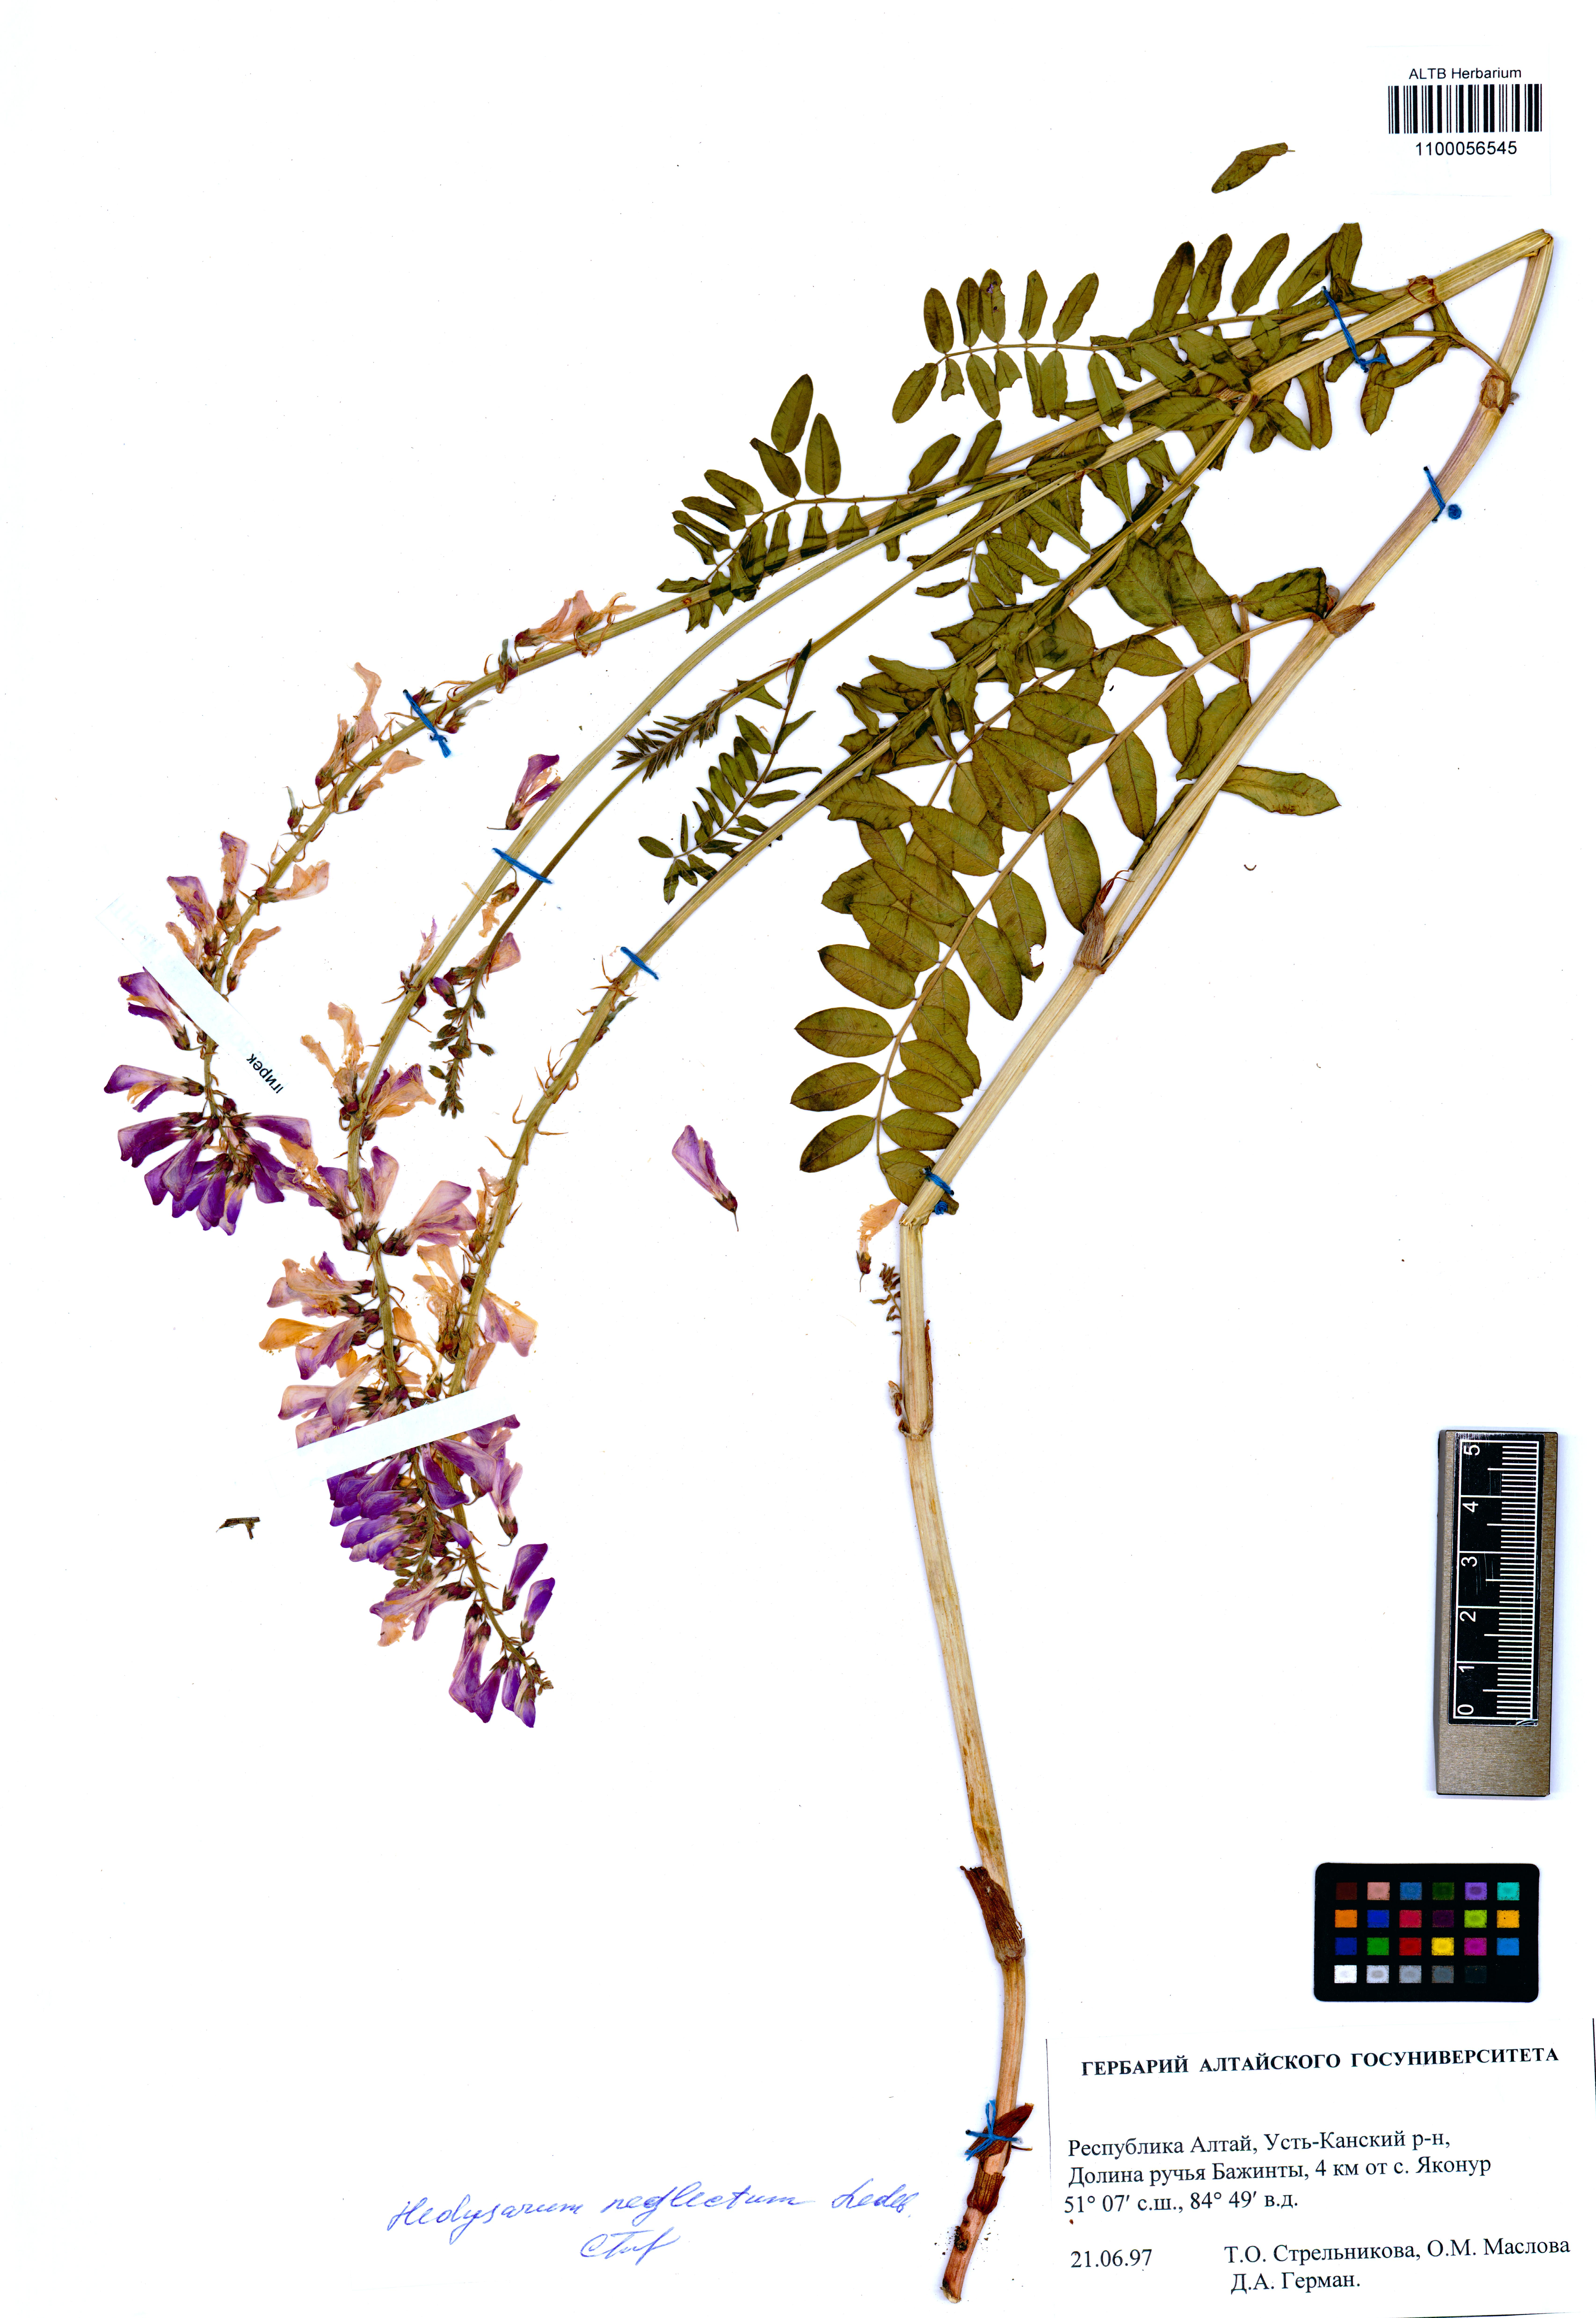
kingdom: Plantae
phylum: Tracheophyta
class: Magnoliopsida
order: Fabales
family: Fabaceae
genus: Hedysarum
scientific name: Hedysarum neglectum
